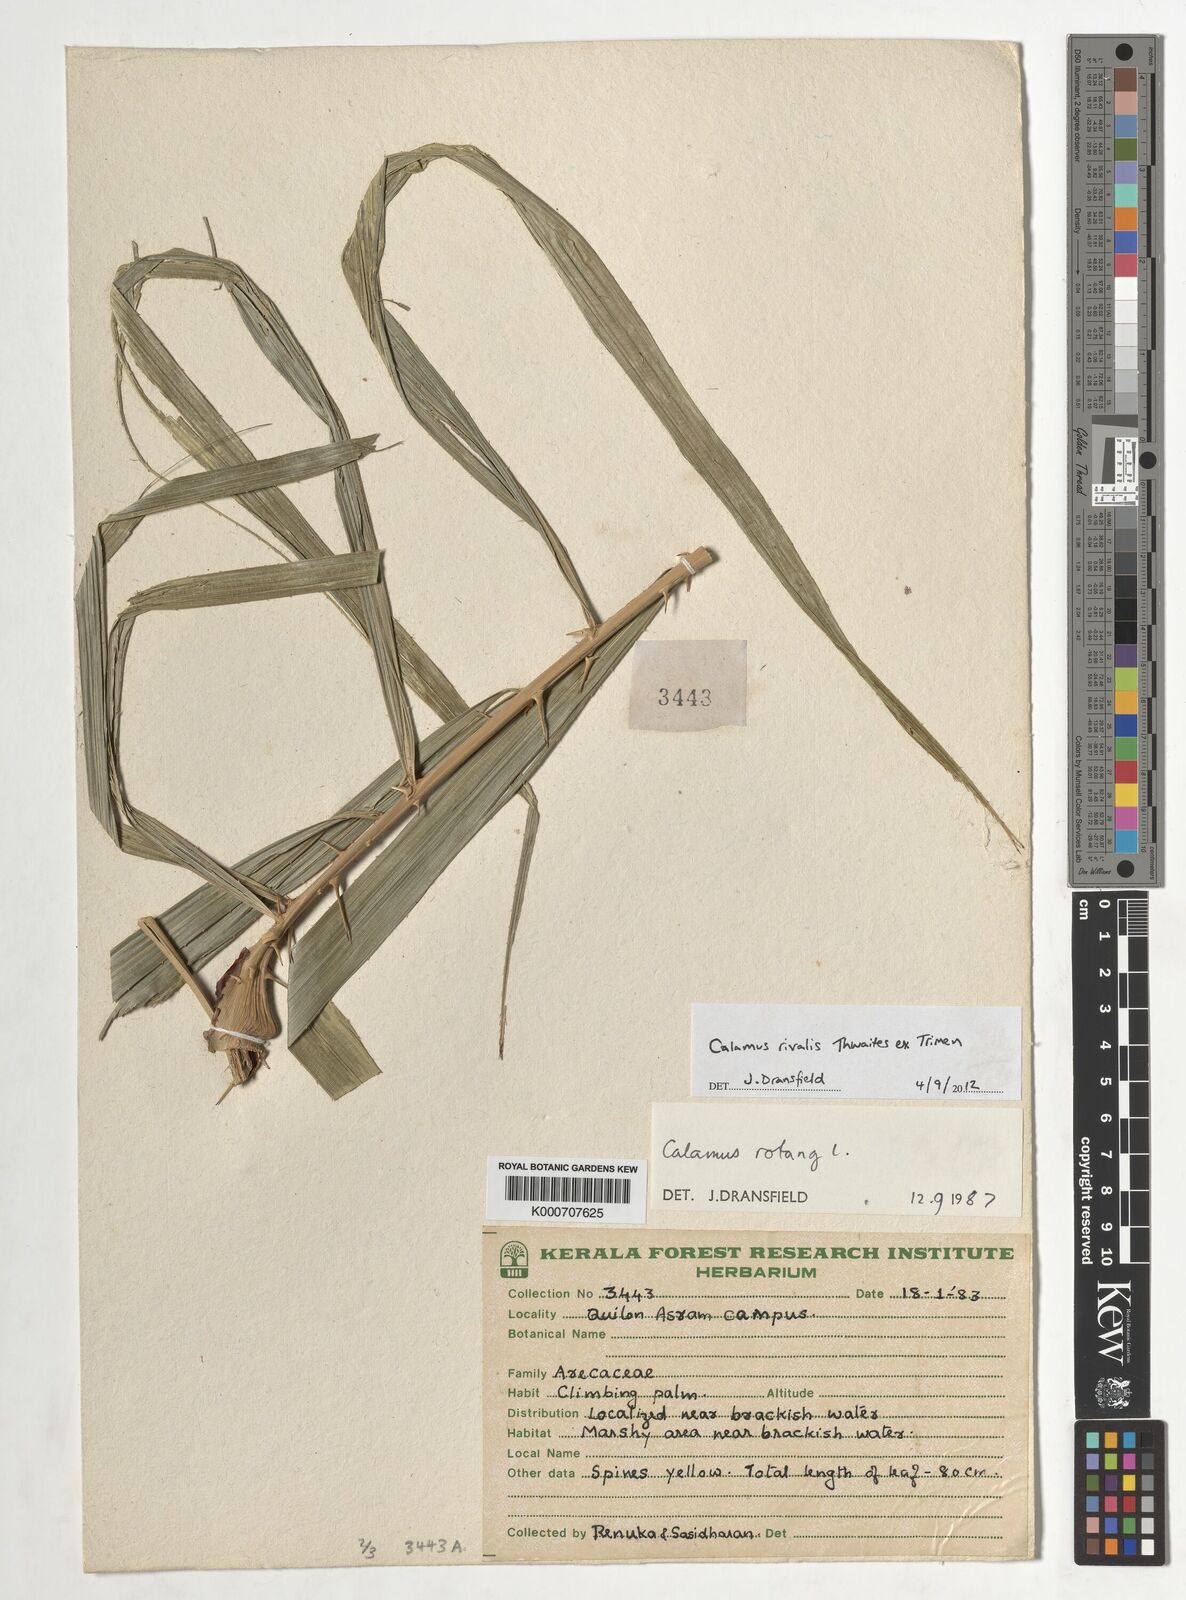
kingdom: Plantae
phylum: Tracheophyta
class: Liliopsida
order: Arecales
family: Arecaceae
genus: Calamus
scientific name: Calamus metzianus
